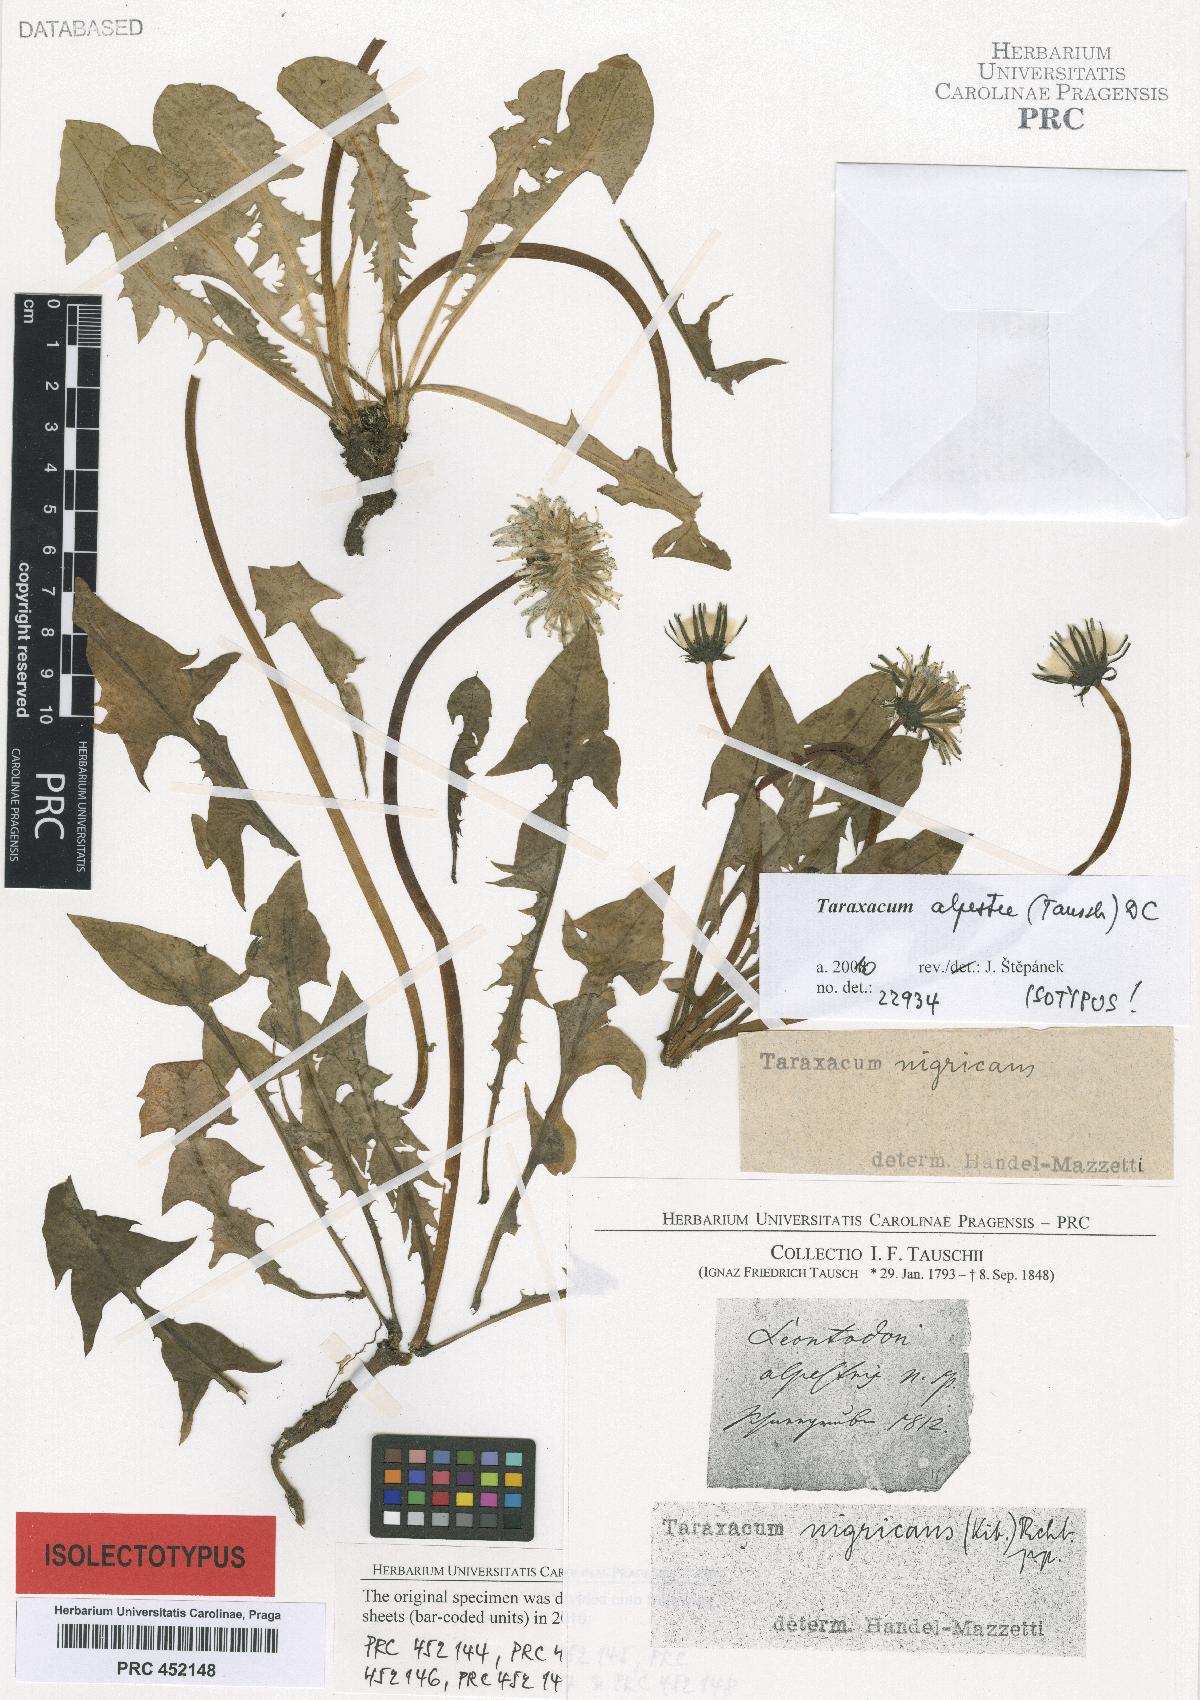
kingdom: Plantae
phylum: Tracheophyta
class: Magnoliopsida
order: Asterales
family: Asteraceae
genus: Taraxacum
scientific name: Taraxacum alpestre
